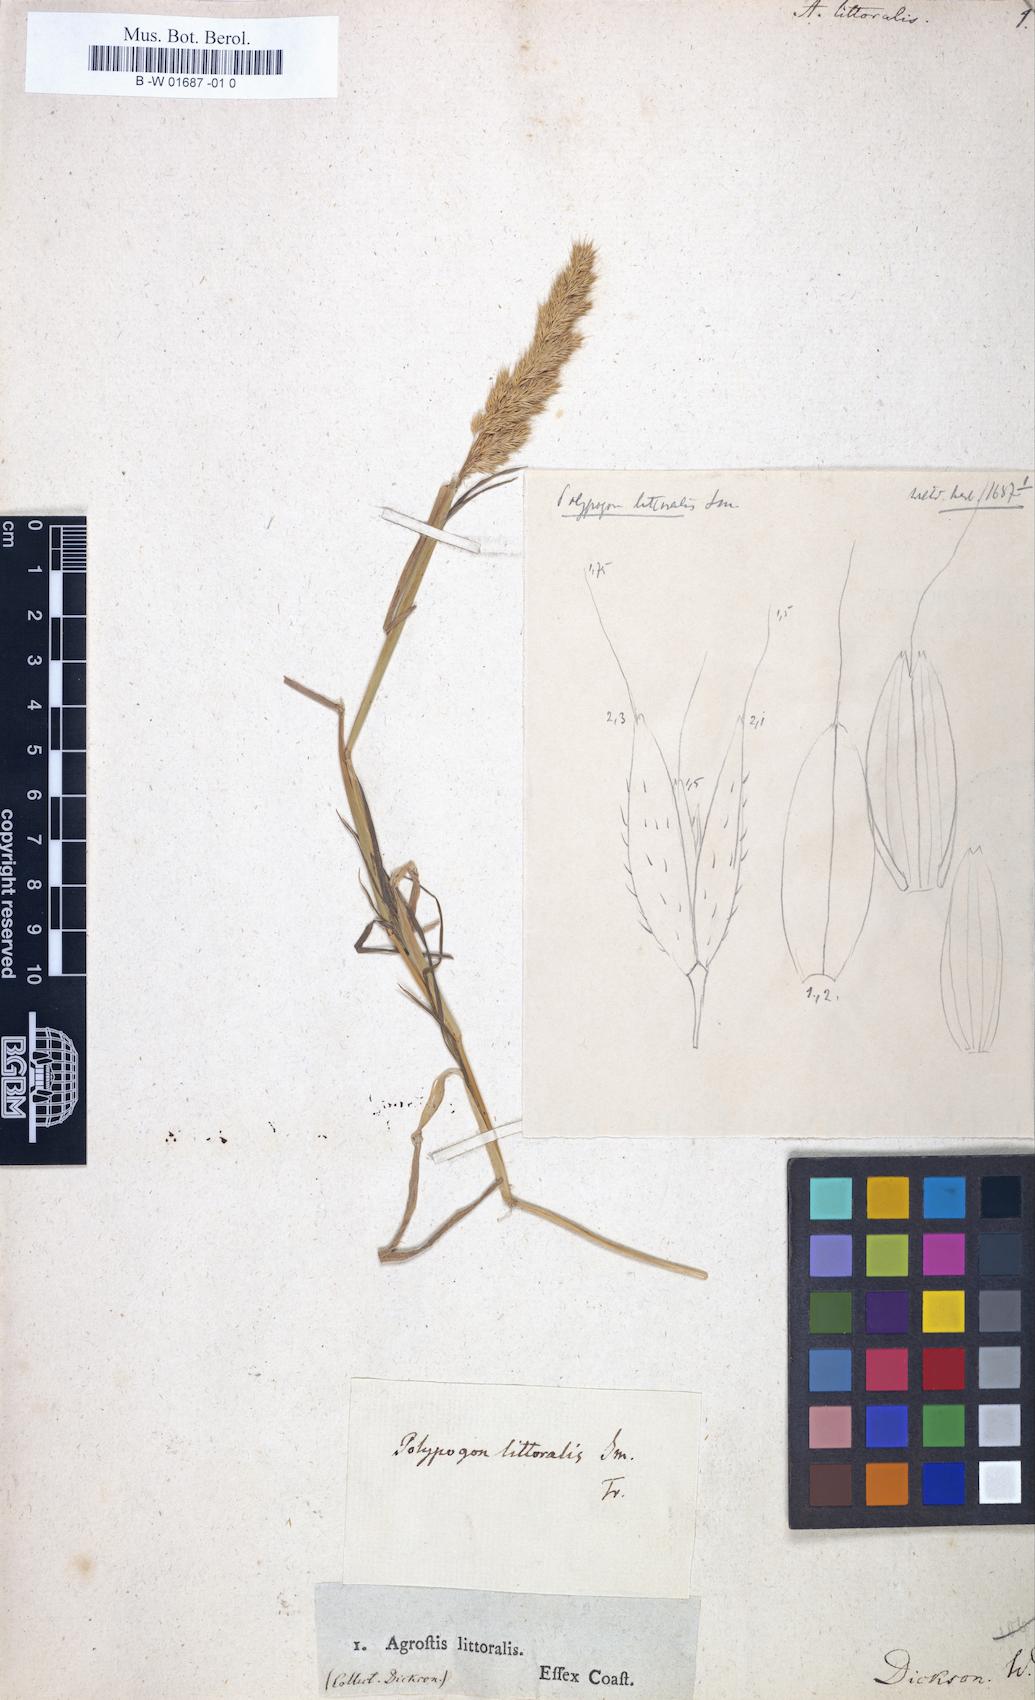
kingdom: Plantae
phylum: Tracheophyta
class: Liliopsida
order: Poales
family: Poaceae
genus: Sporobolus
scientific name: Sporobolus virginicus
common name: Beach dropseed
